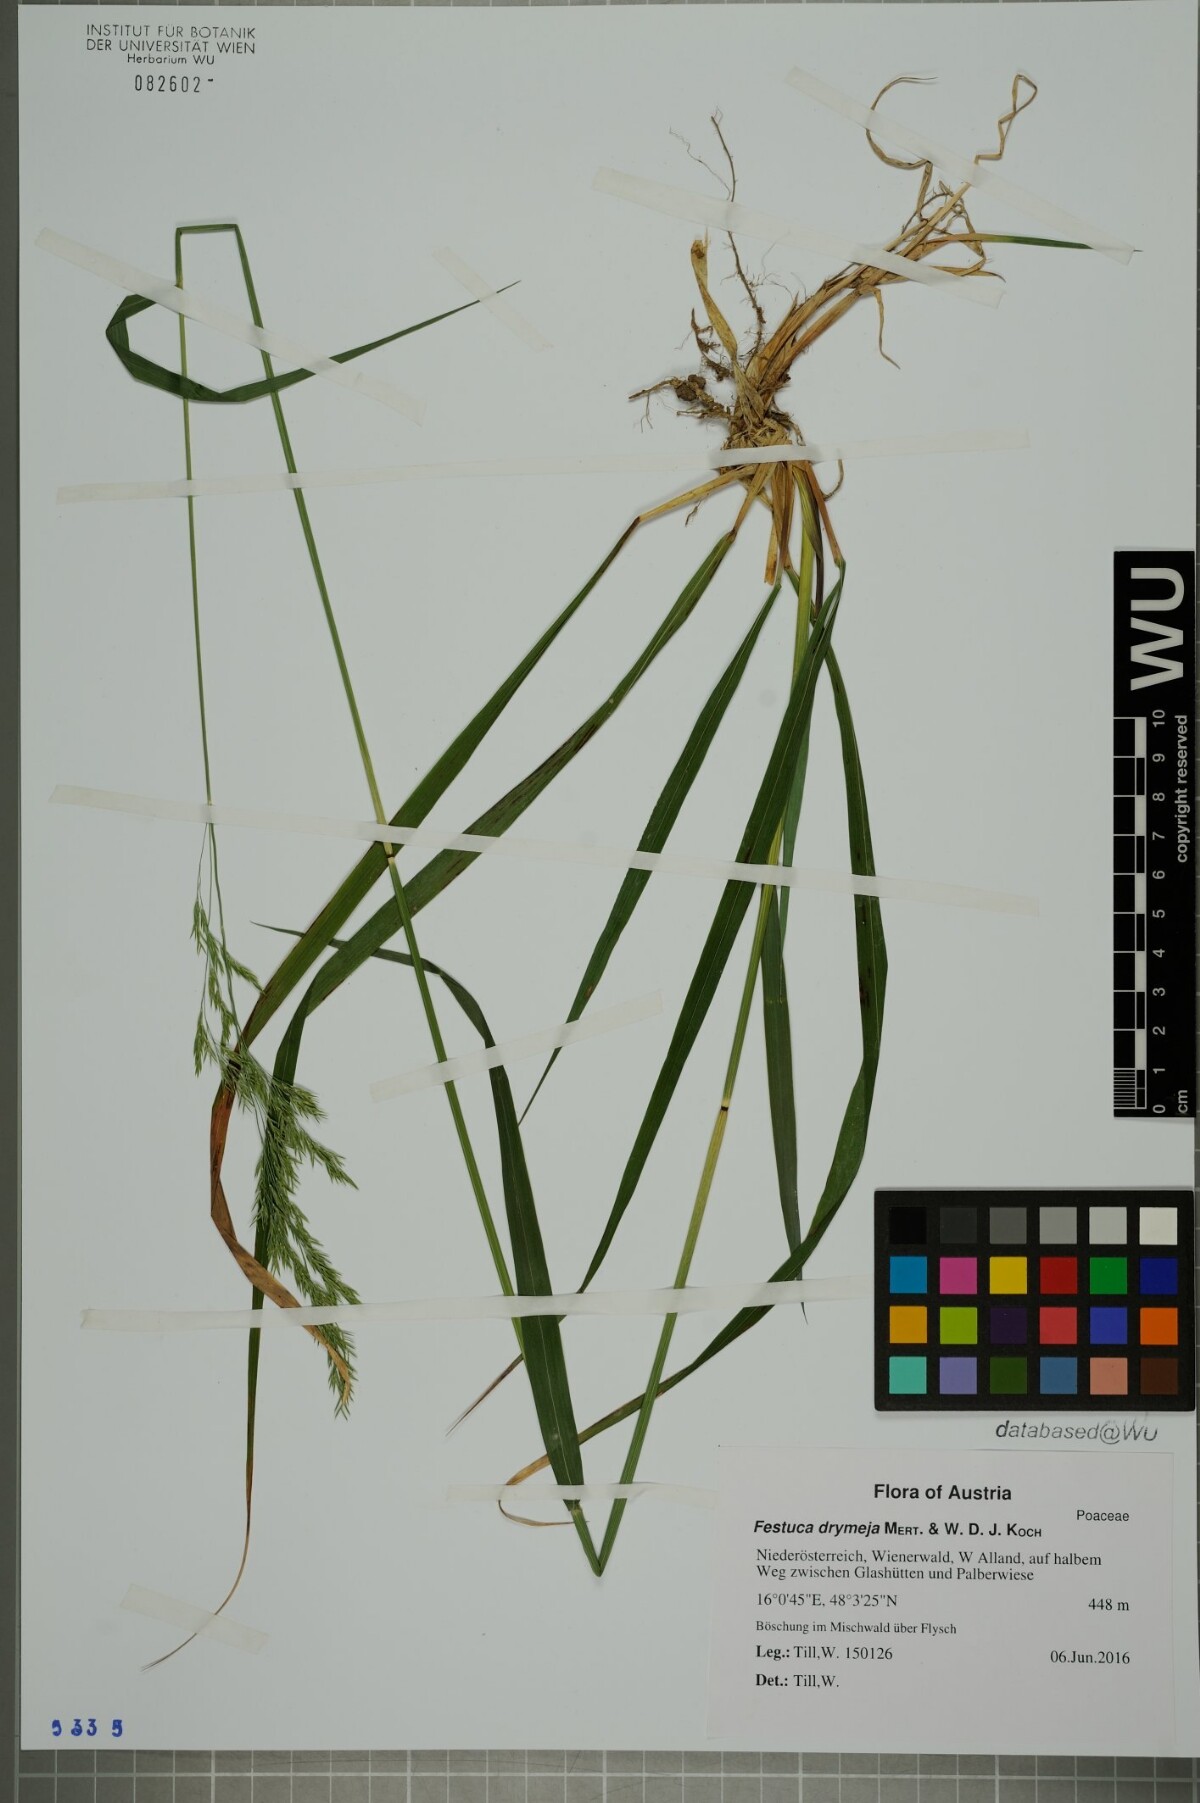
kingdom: Plantae
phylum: Tracheophyta
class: Liliopsida
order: Poales
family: Poaceae
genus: Festuca
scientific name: Festuca drymeja
